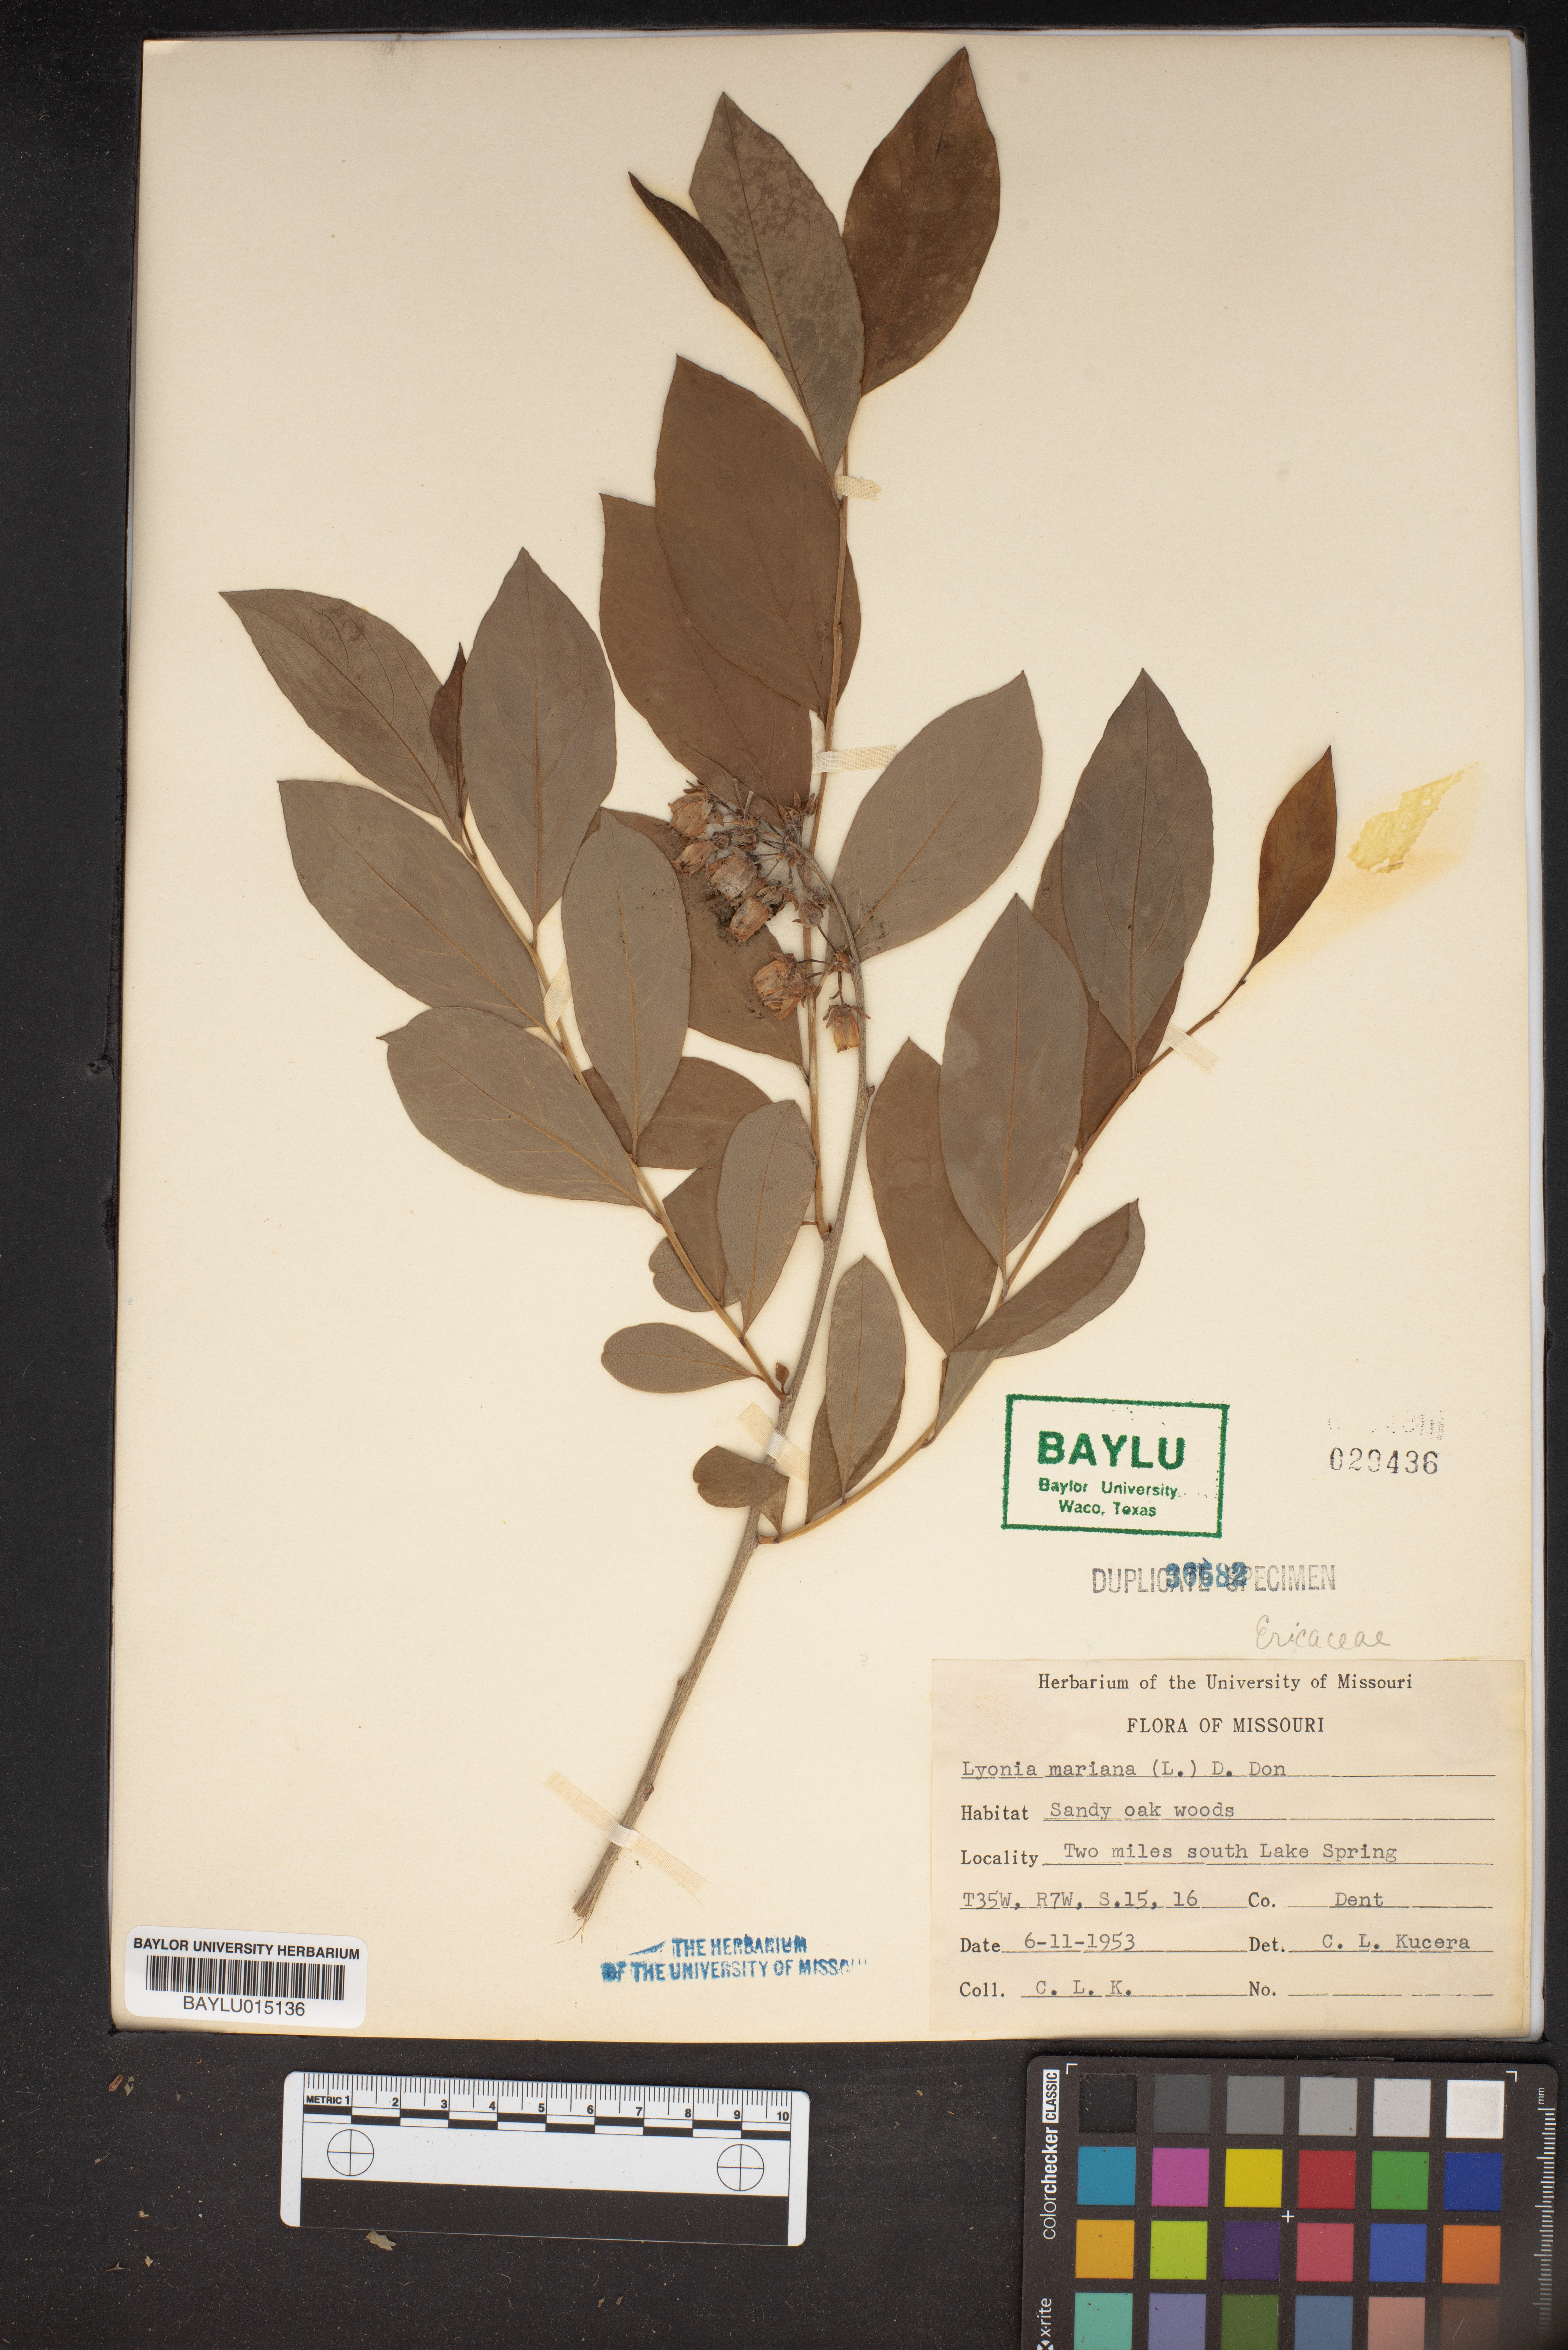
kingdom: Plantae
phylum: Tracheophyta
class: Magnoliopsida
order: Ericales
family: Ericaceae
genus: Lyonia
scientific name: Lyonia mariana
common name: Staggerbush
